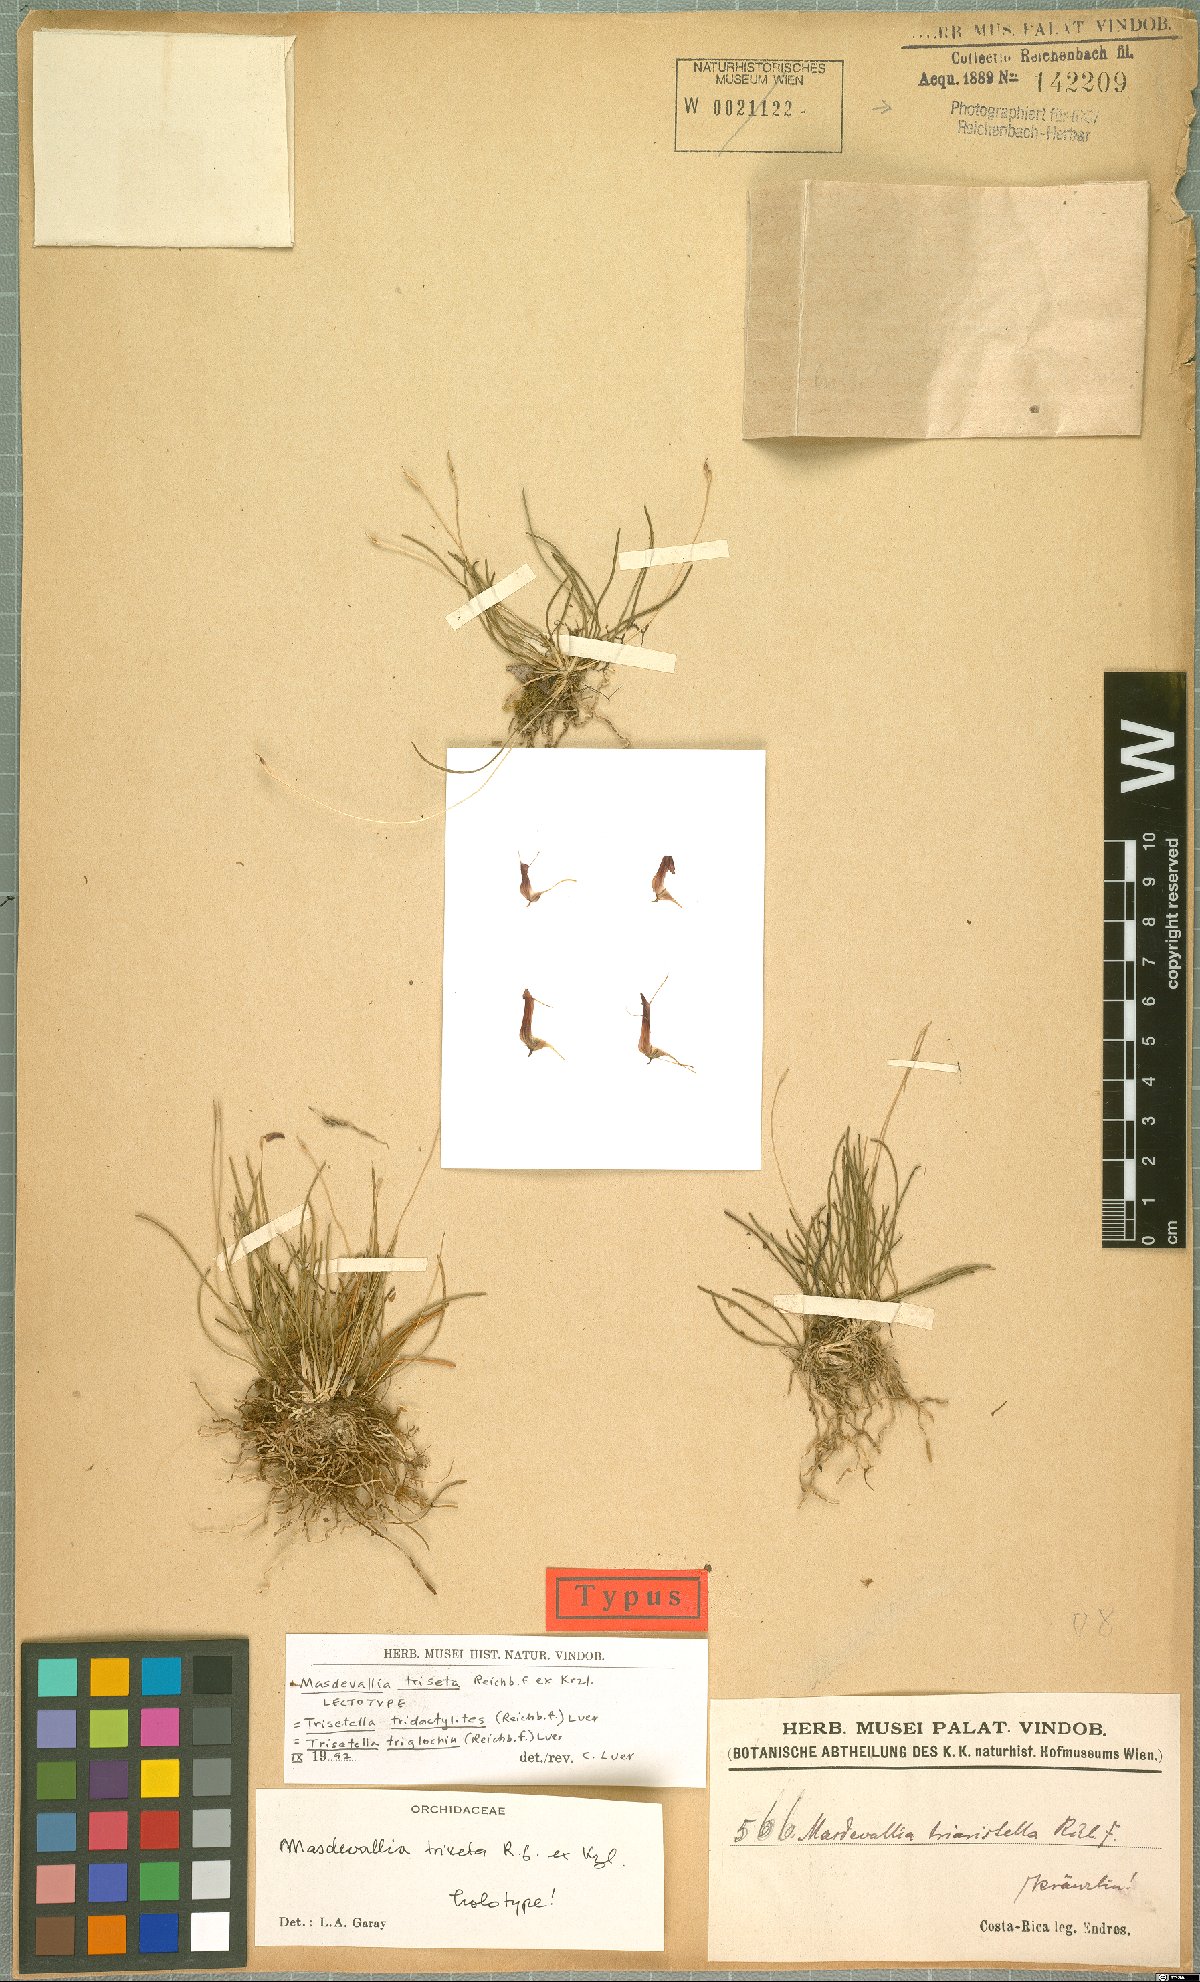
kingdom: Plantae
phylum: Tracheophyta
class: Liliopsida
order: Asparagales
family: Orchidaceae
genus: Trisetella
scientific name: Trisetella triglochin
